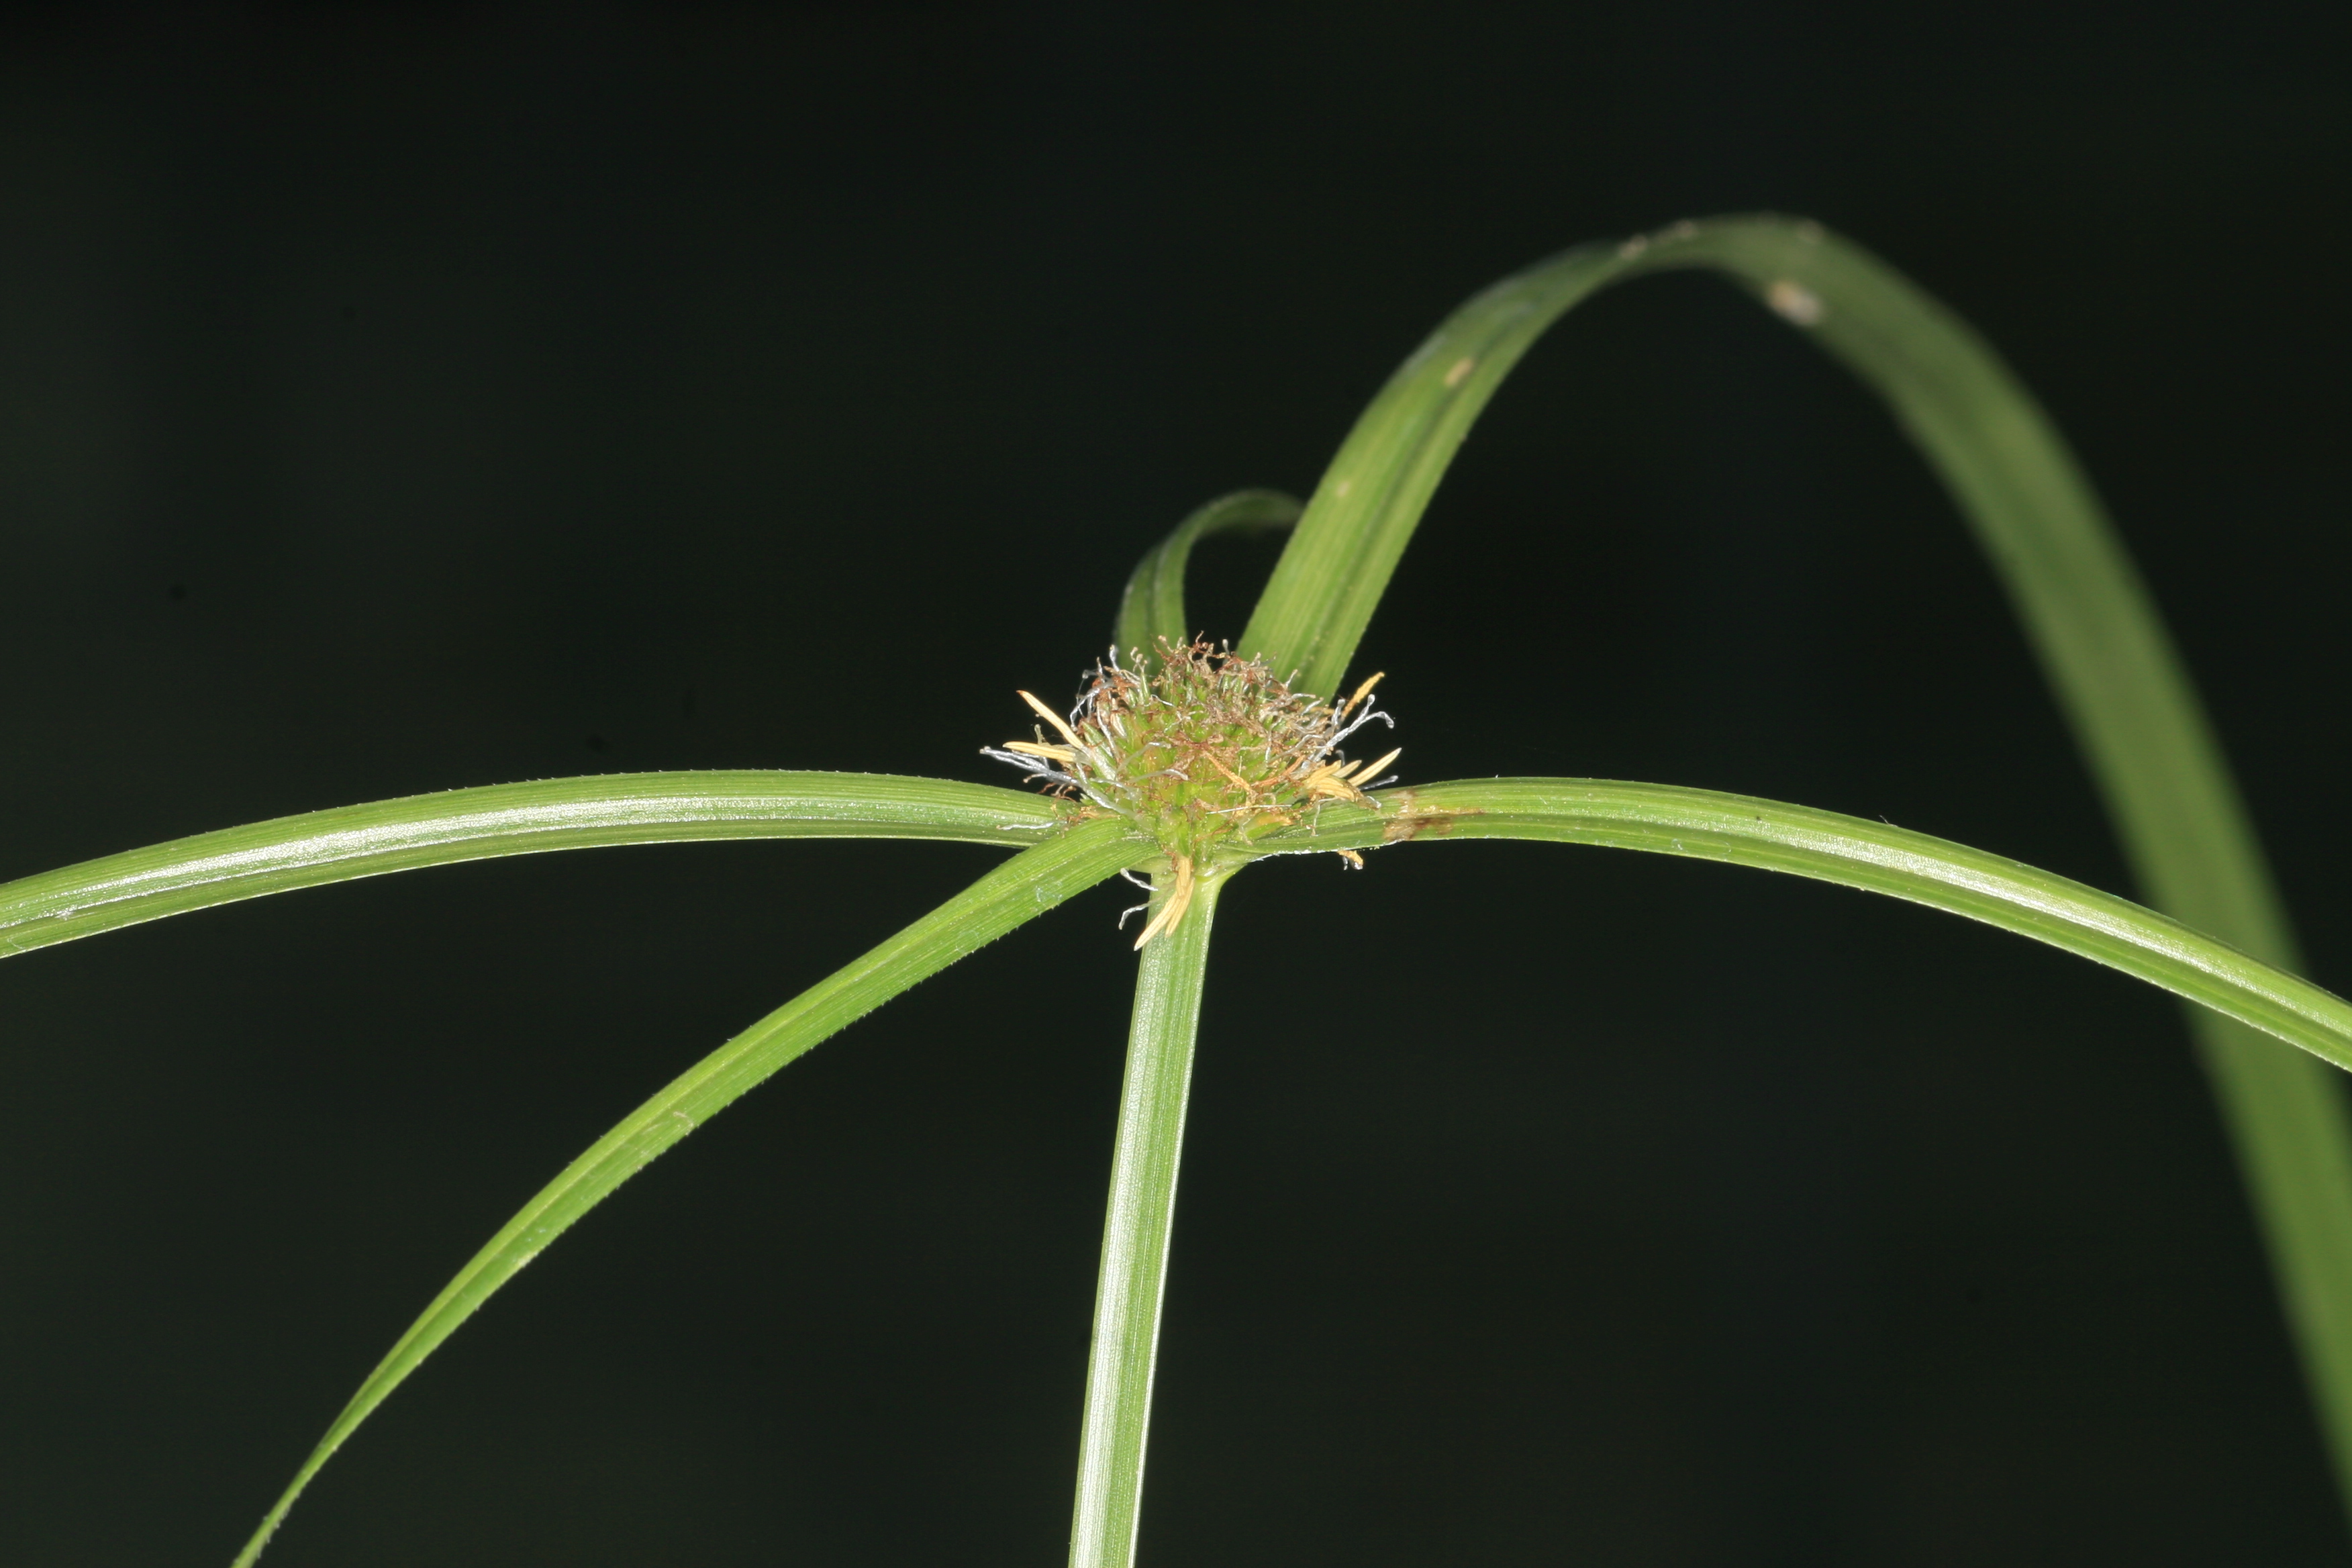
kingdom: Plantae
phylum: Tracheophyta
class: Liliopsida
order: Poales
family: Cyperaceae
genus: Cyperus
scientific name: Cyperus aromaticus
